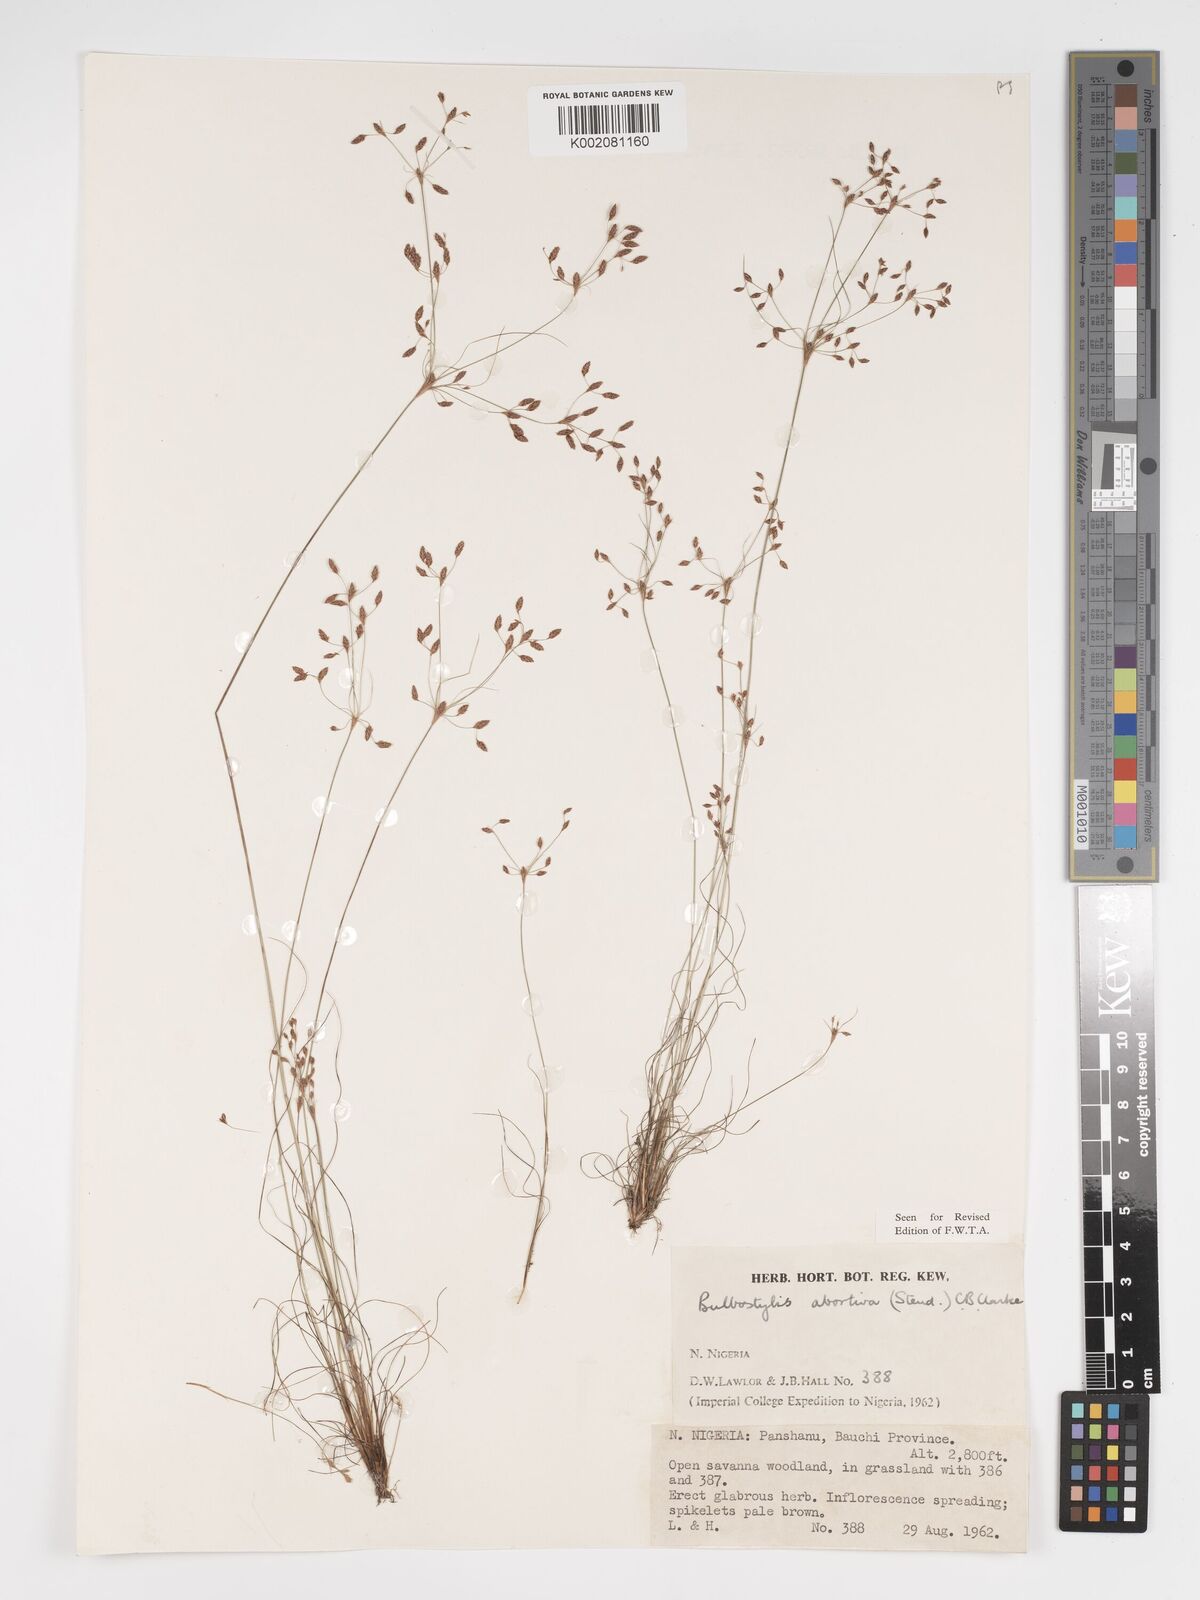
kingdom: Plantae
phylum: Tracheophyta
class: Liliopsida
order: Poales
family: Cyperaceae
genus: Bulbostylis
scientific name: Bulbostylis abortiva
